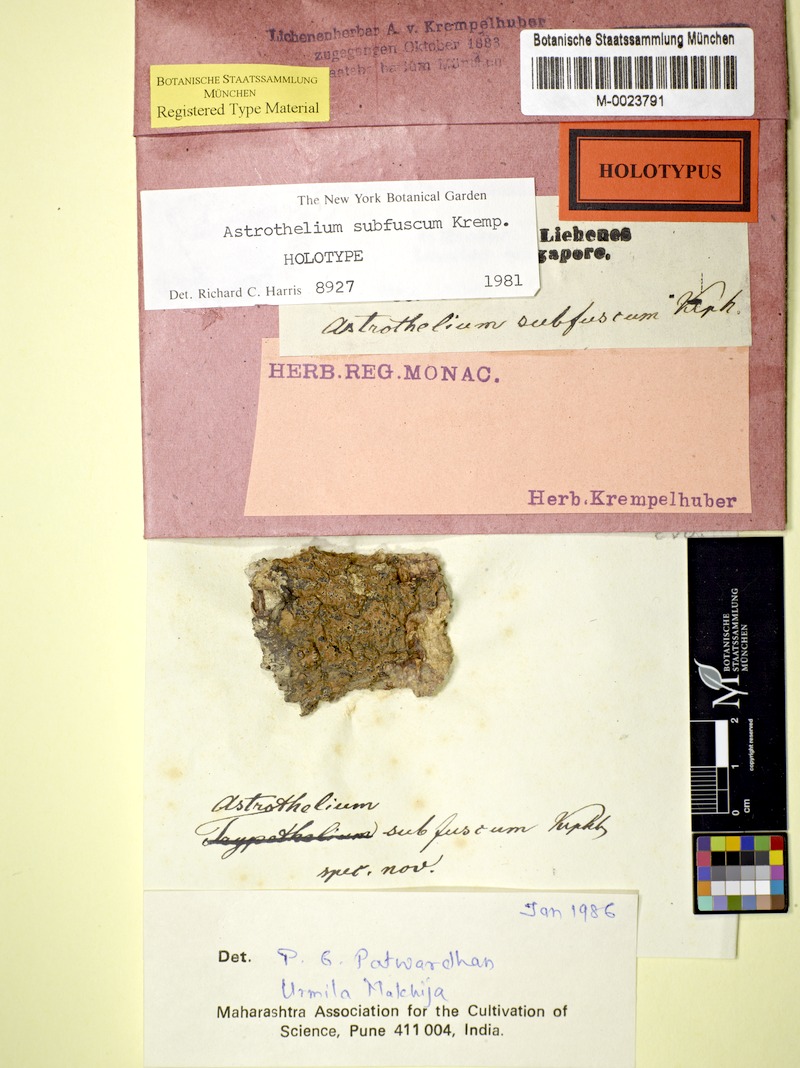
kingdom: Fungi
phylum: Ascomycota
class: Dothideomycetes
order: Trypetheliales
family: Trypetheliaceae
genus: Astrothelium
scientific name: Astrothelium subfuscum
